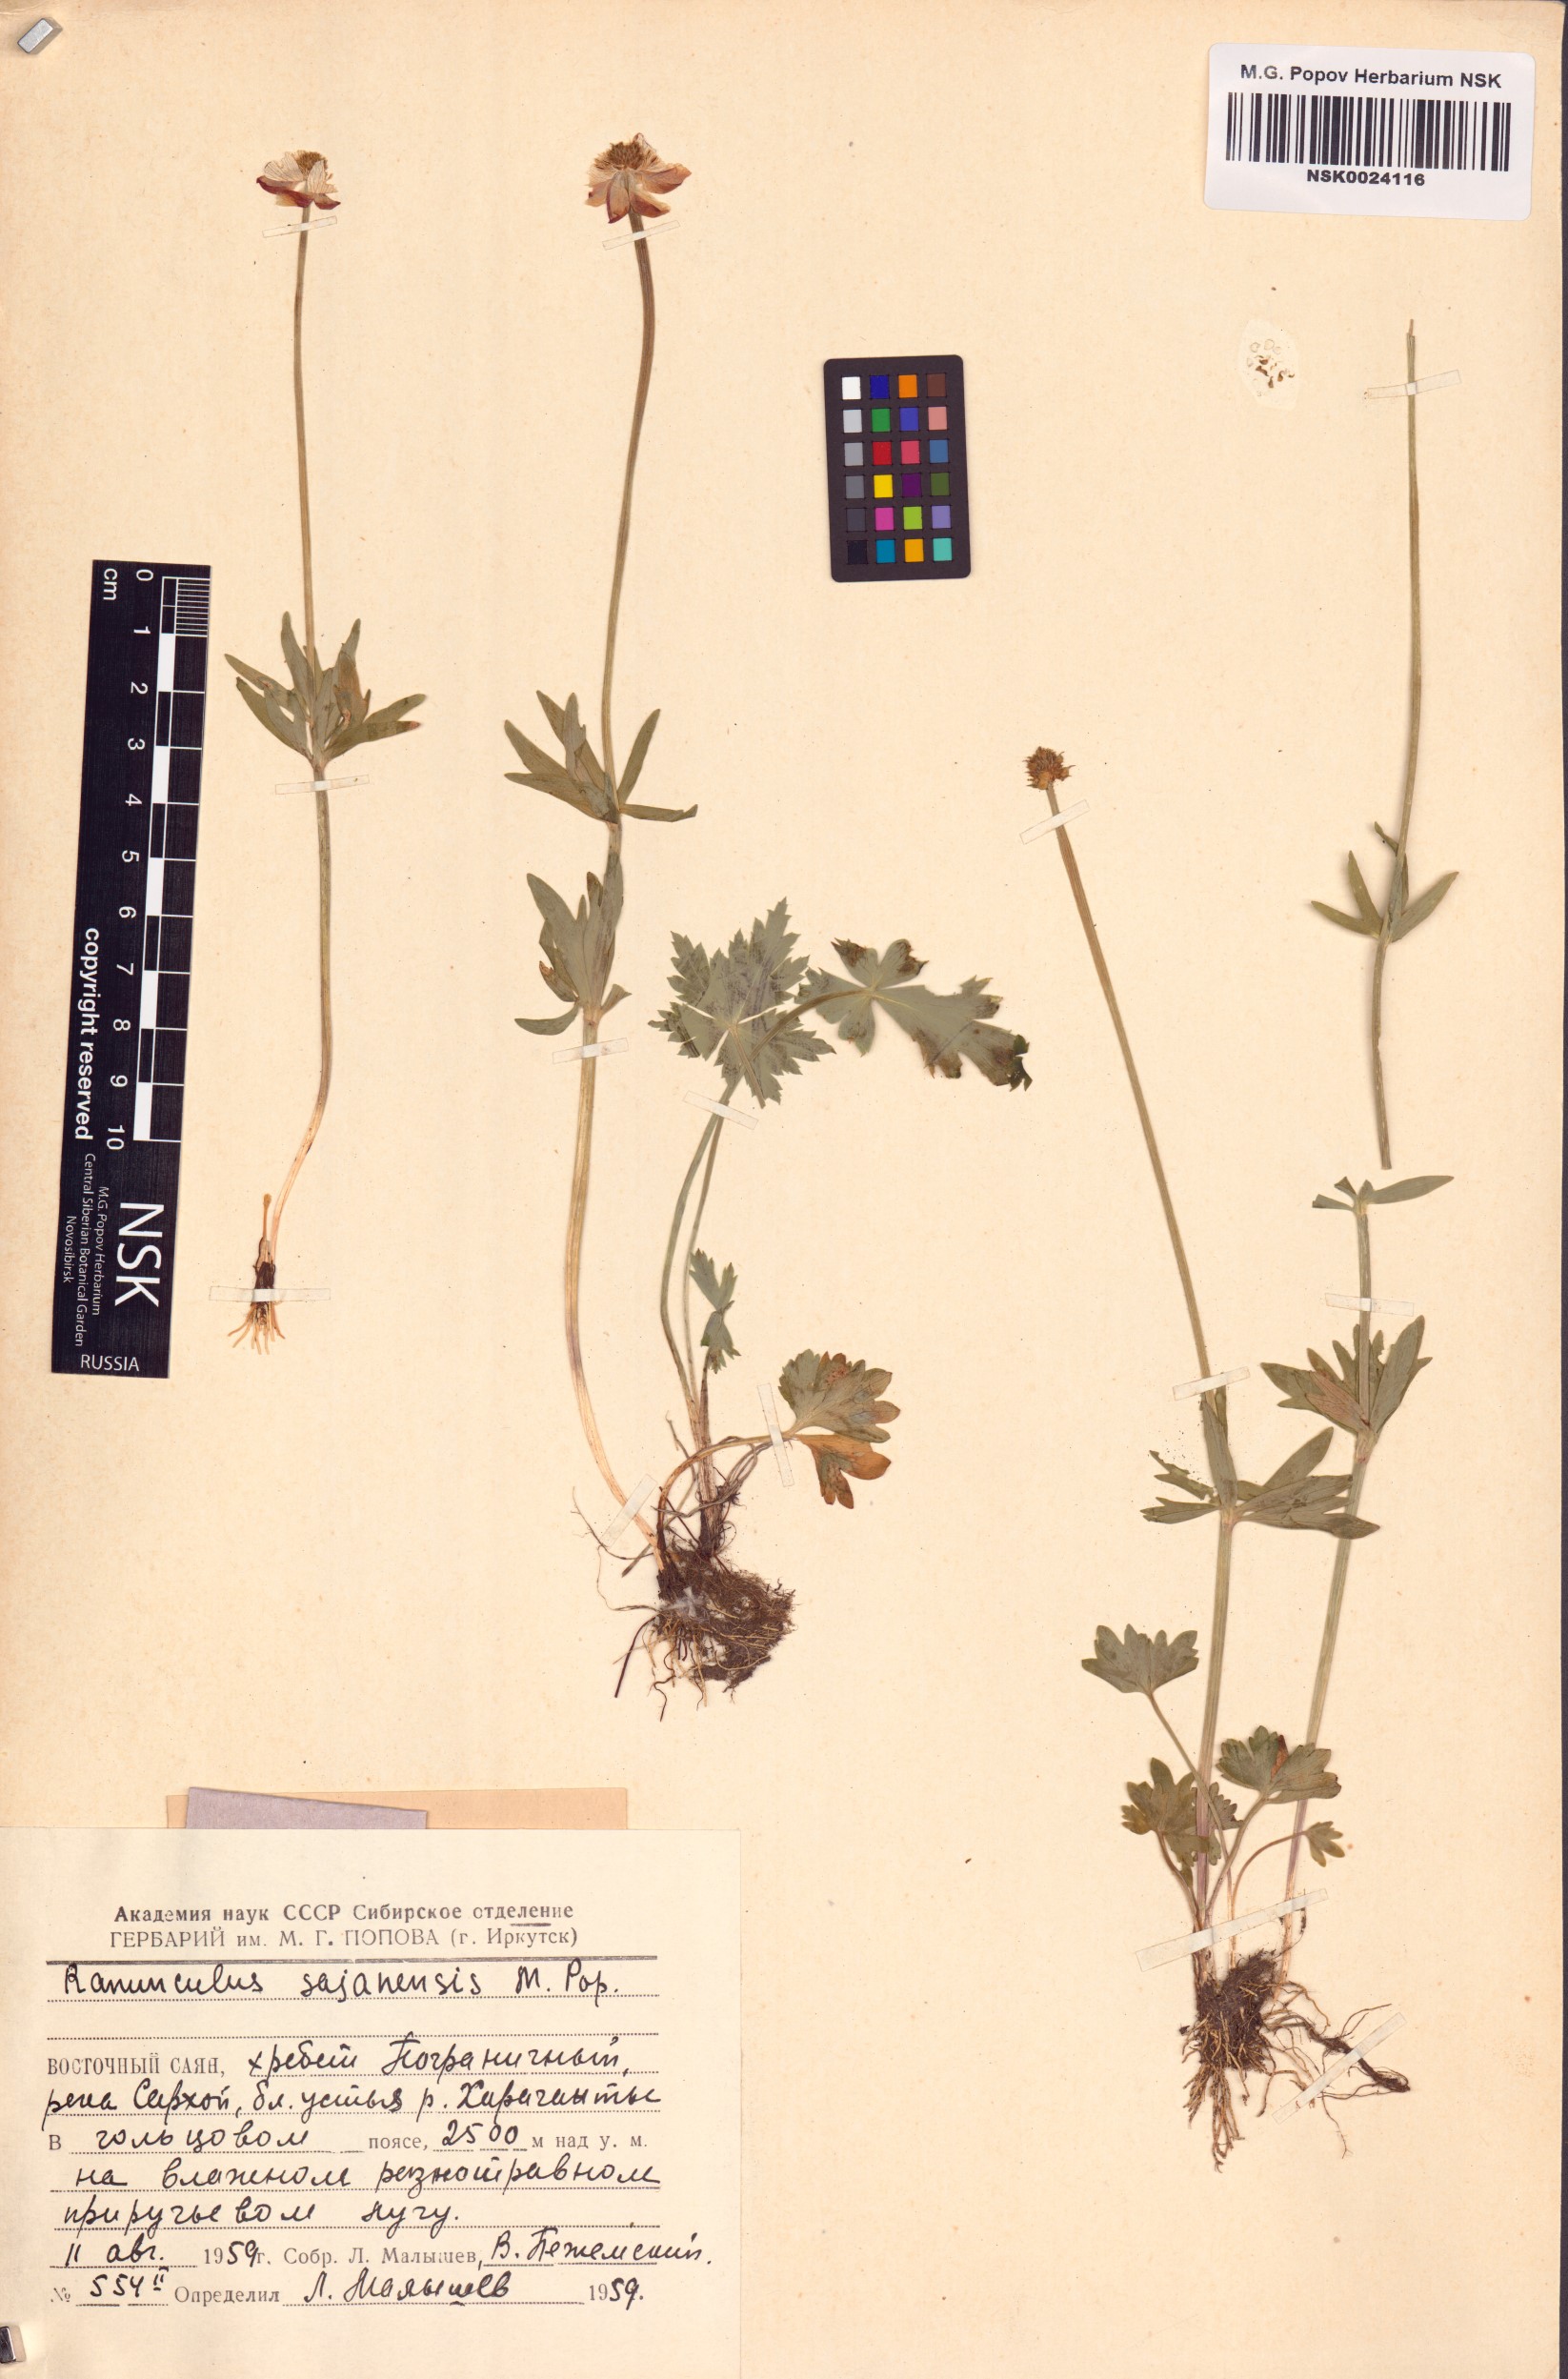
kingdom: Plantae
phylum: Tracheophyta
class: Magnoliopsida
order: Ranunculales
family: Ranunculaceae
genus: Ranunculus
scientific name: Ranunculus sajanensis
